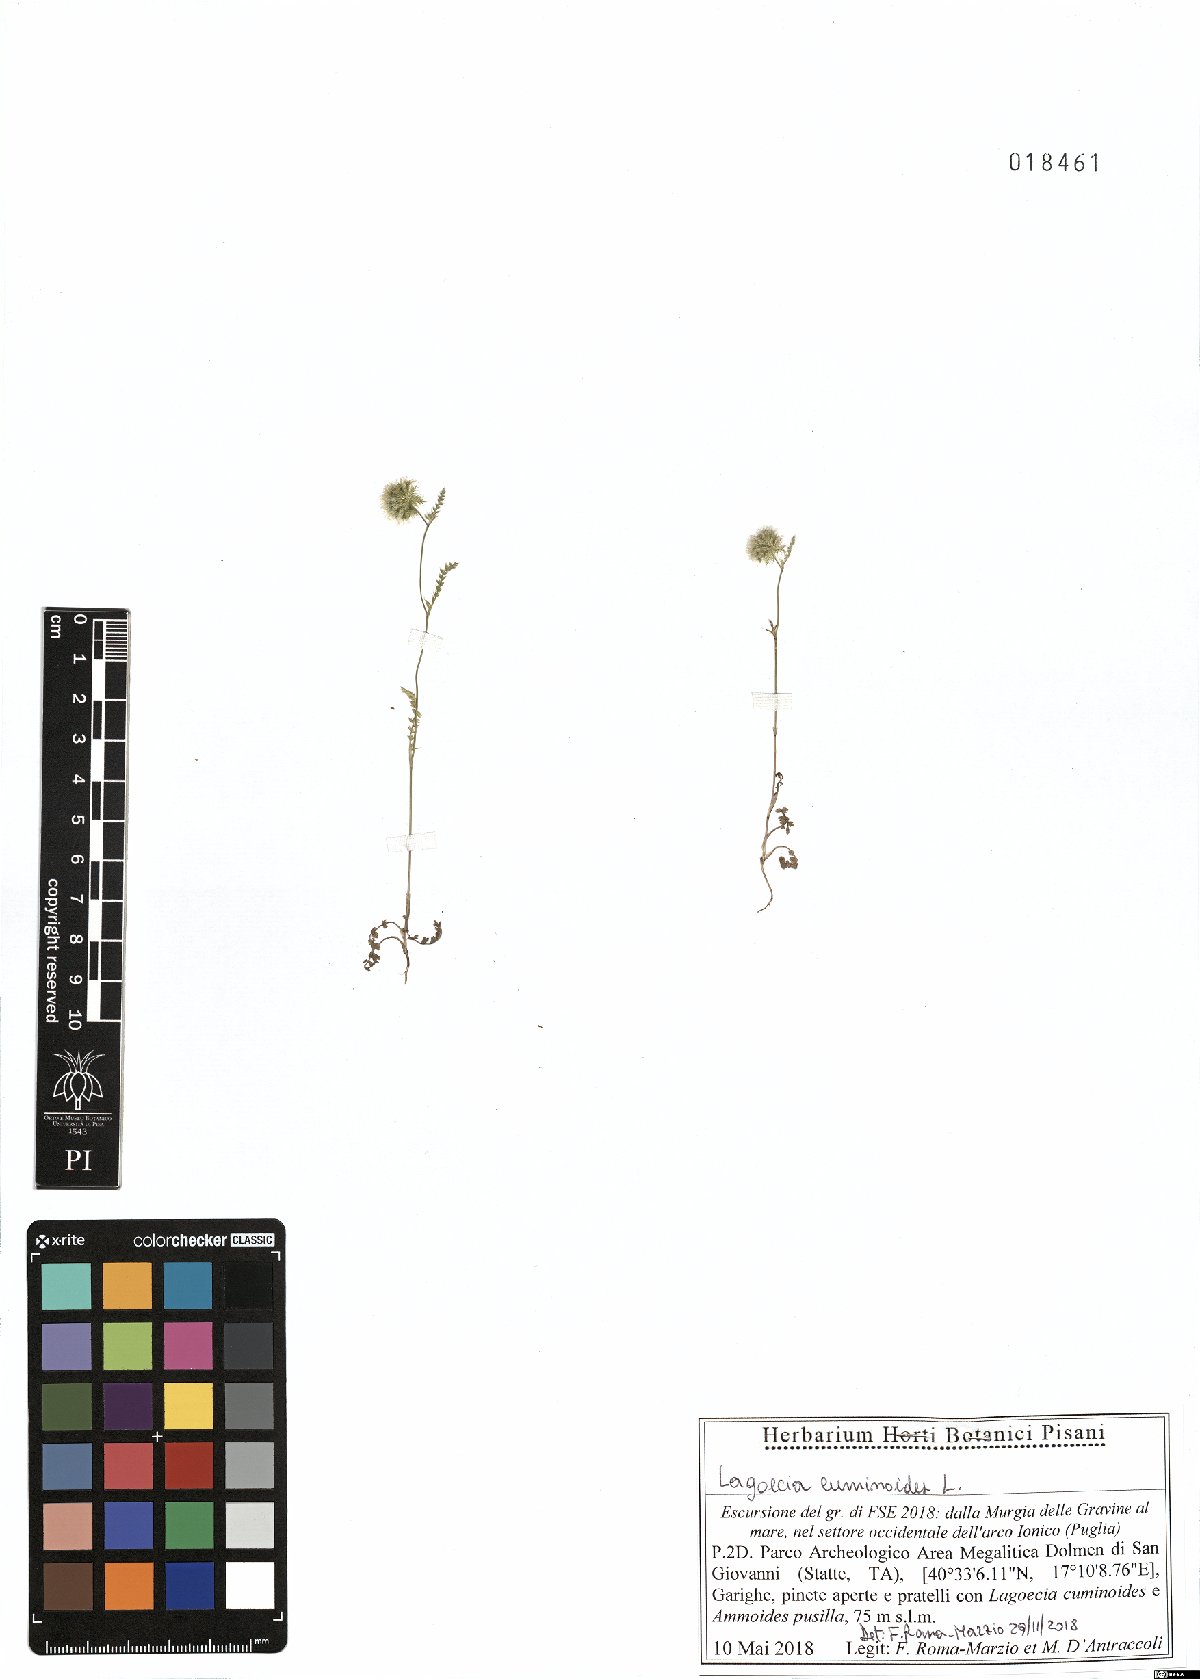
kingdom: Plantae
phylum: Tracheophyta
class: Magnoliopsida
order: Apiales
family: Apiaceae
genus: Lagoecia
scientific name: Lagoecia cuminoides
